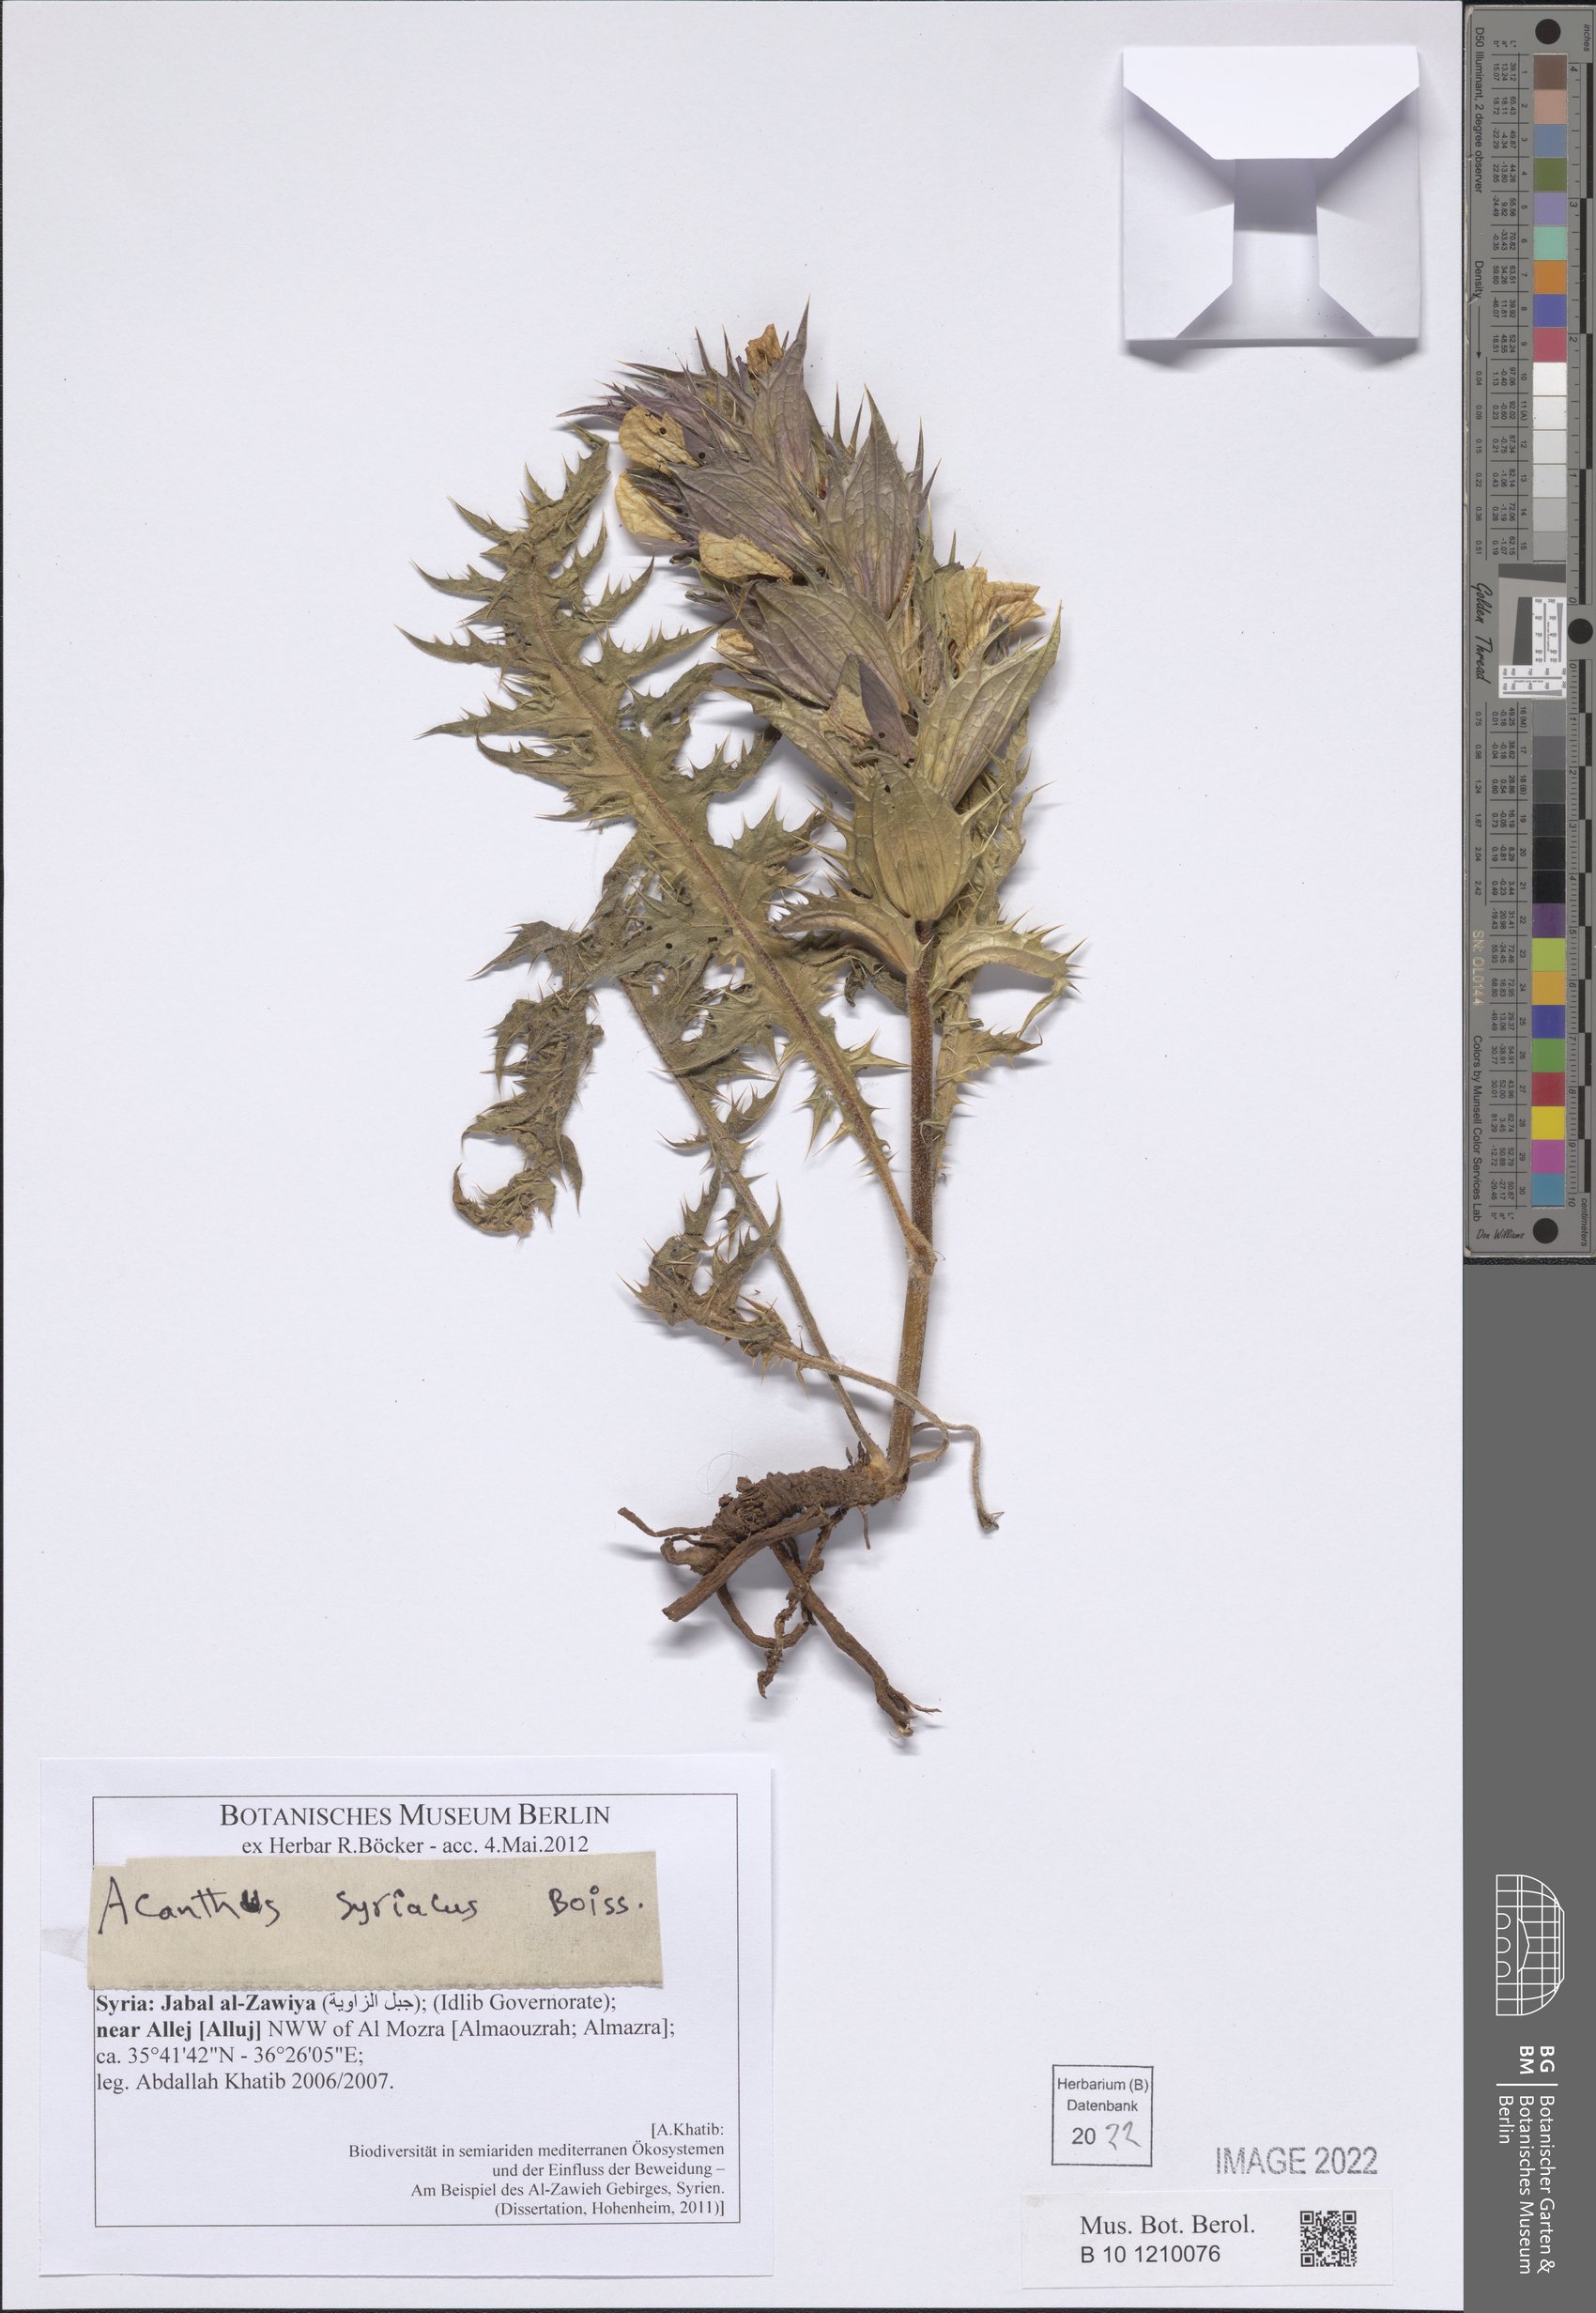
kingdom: Plantae
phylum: Tracheophyta
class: Magnoliopsida
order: Lamiales
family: Acanthaceae
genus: Acanthus
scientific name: Acanthus hirsutus
